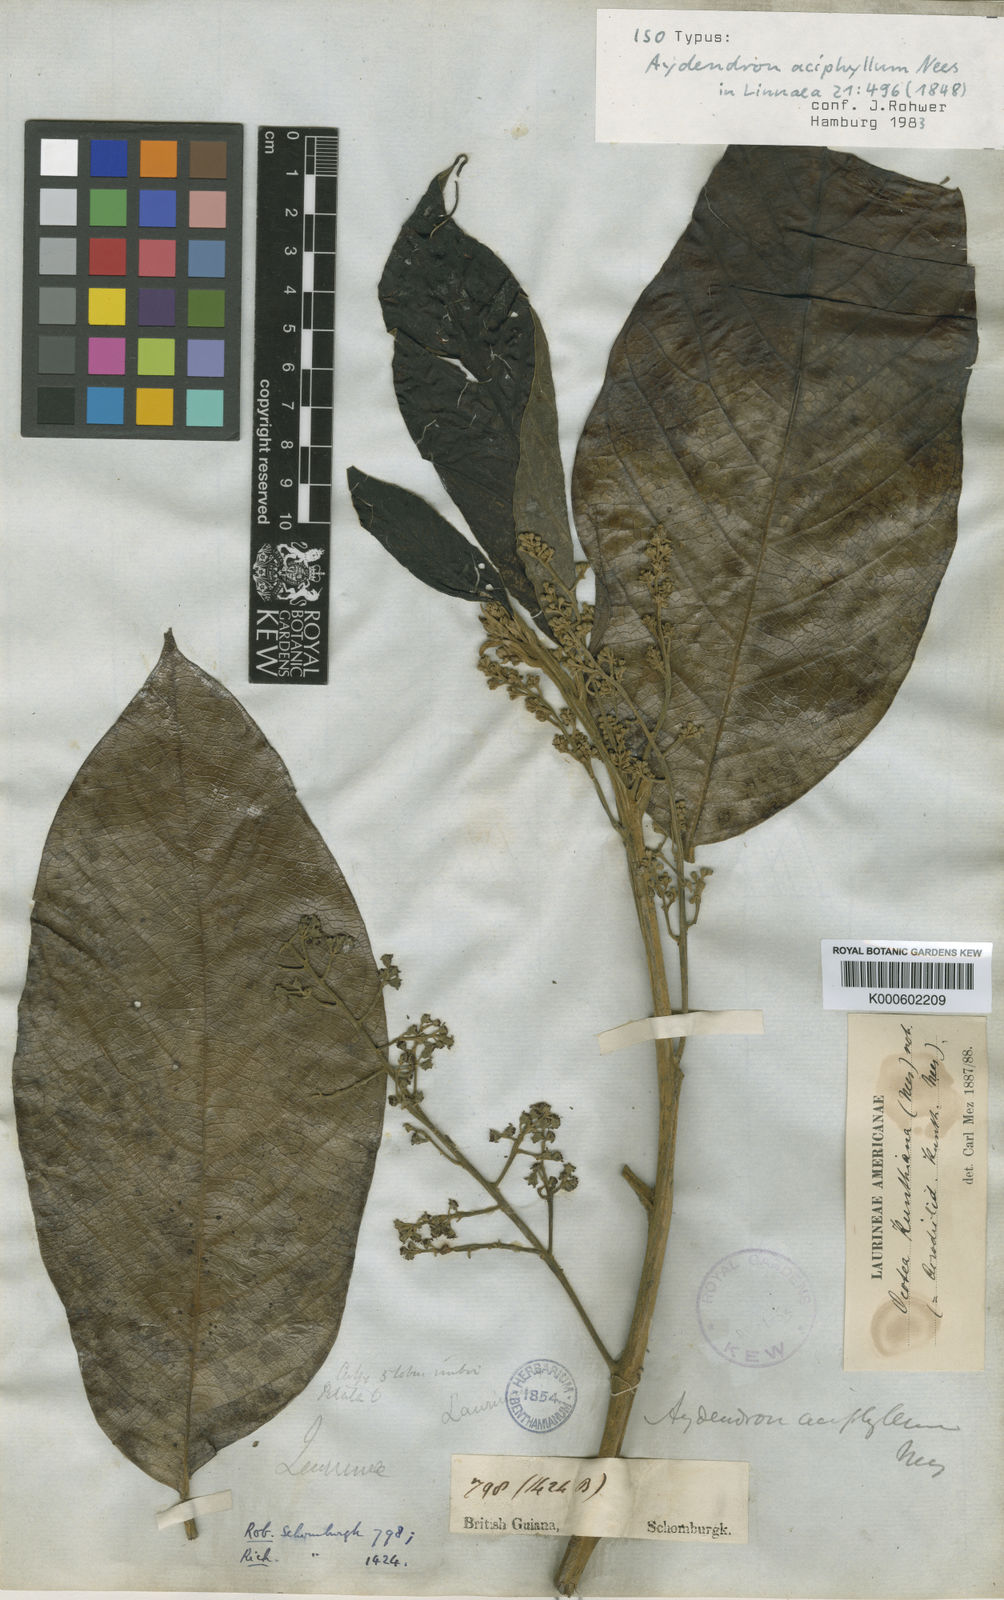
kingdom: Plantae
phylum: Tracheophyta
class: Magnoliopsida
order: Laurales
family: Lauraceae
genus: Rhodostemonodaphne
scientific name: Rhodostemonodaphne kunthiana
